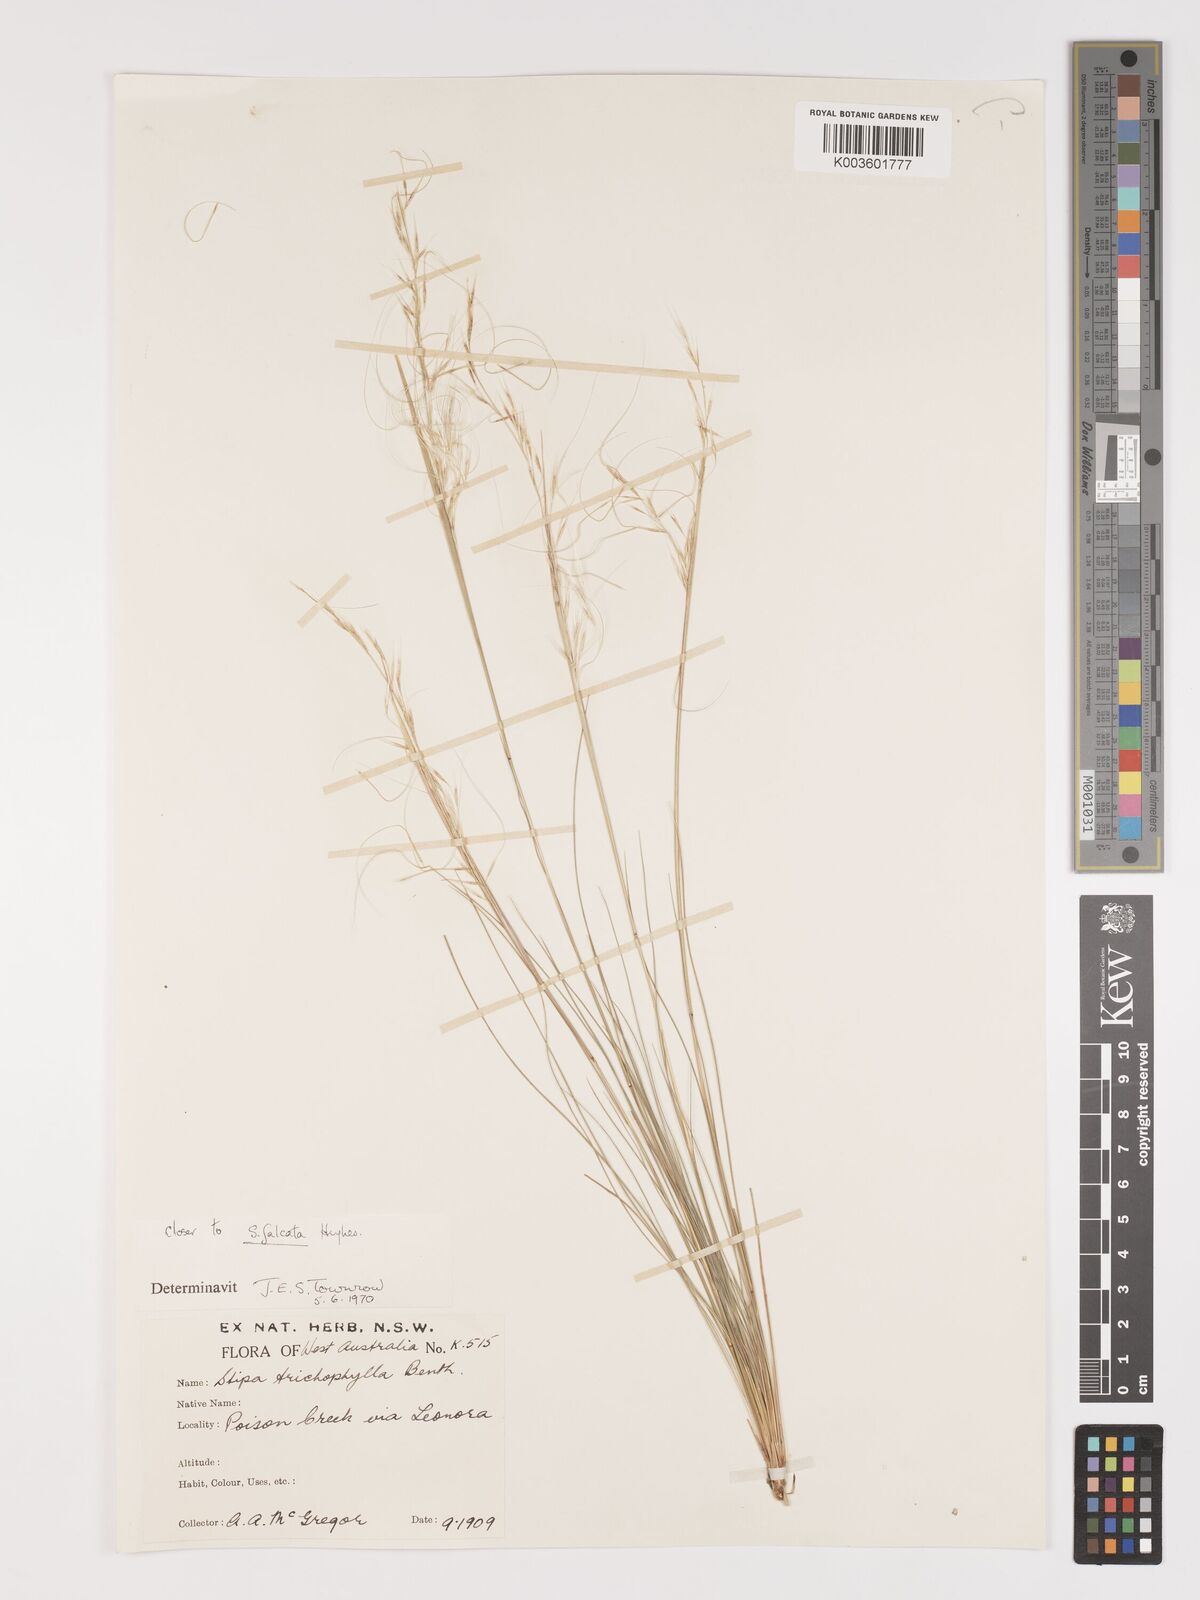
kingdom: Plantae
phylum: Tracheophyta
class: Liliopsida
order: Poales
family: Poaceae
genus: Austrostipa
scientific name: Austrostipa nitida
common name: Balcarra grass
